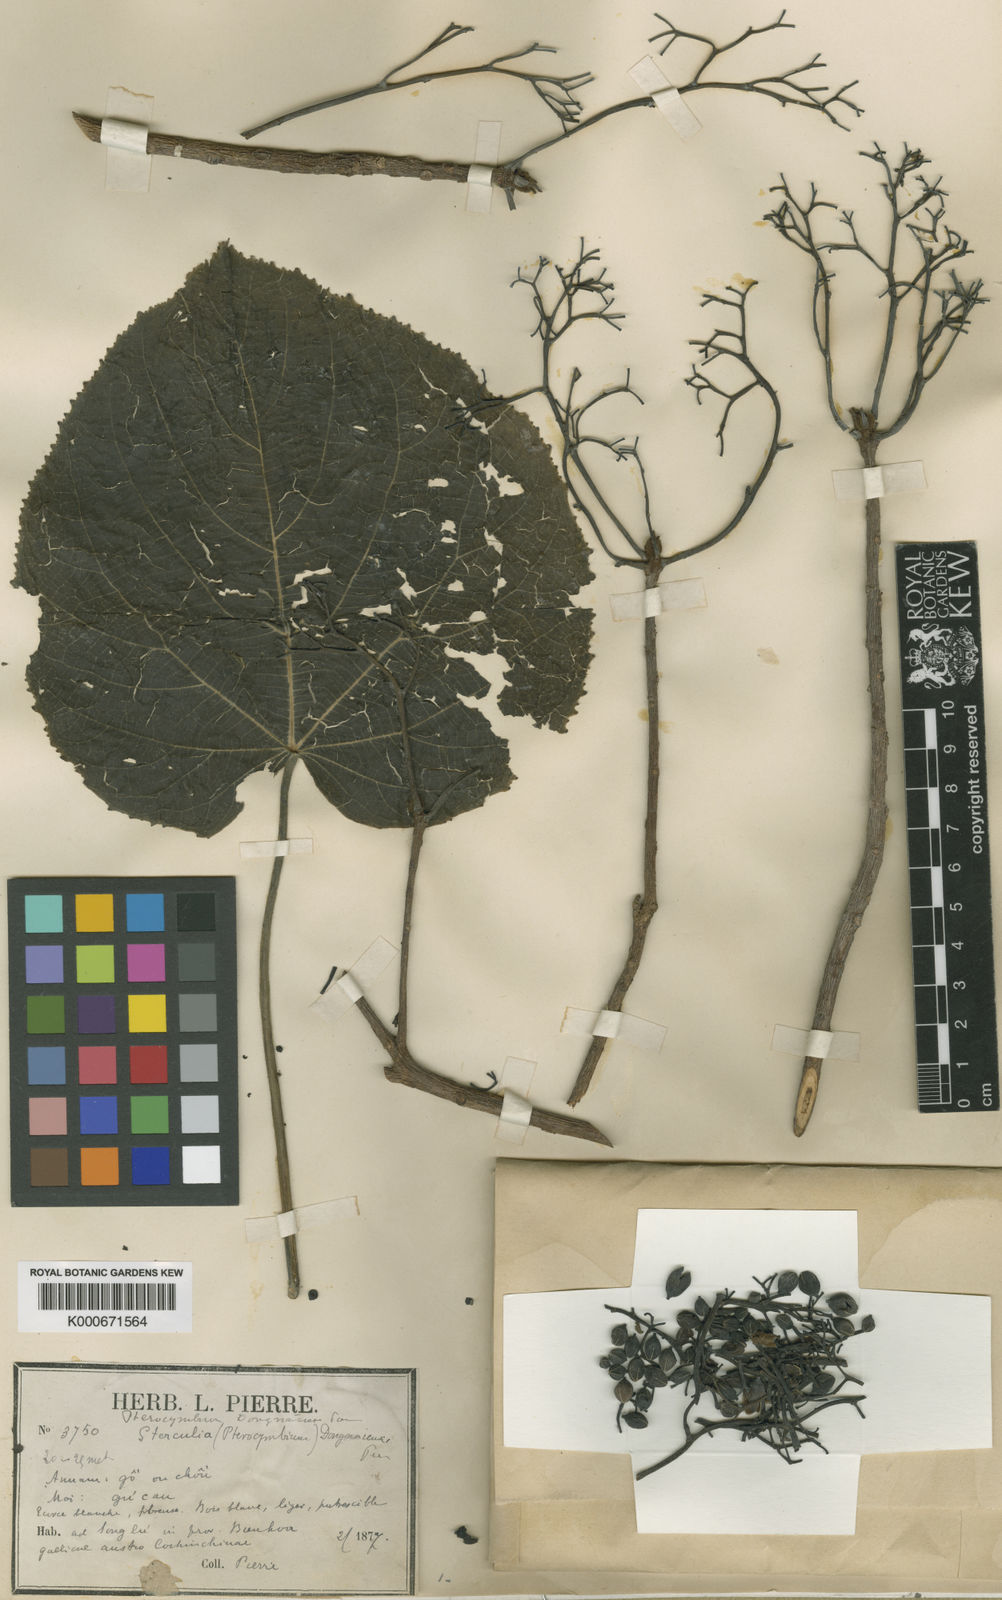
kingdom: Plantae
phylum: Tracheophyta
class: Magnoliopsida
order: Malvales
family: Malvaceae
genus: Pterocymbium
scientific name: Pterocymbium dongnaiense
